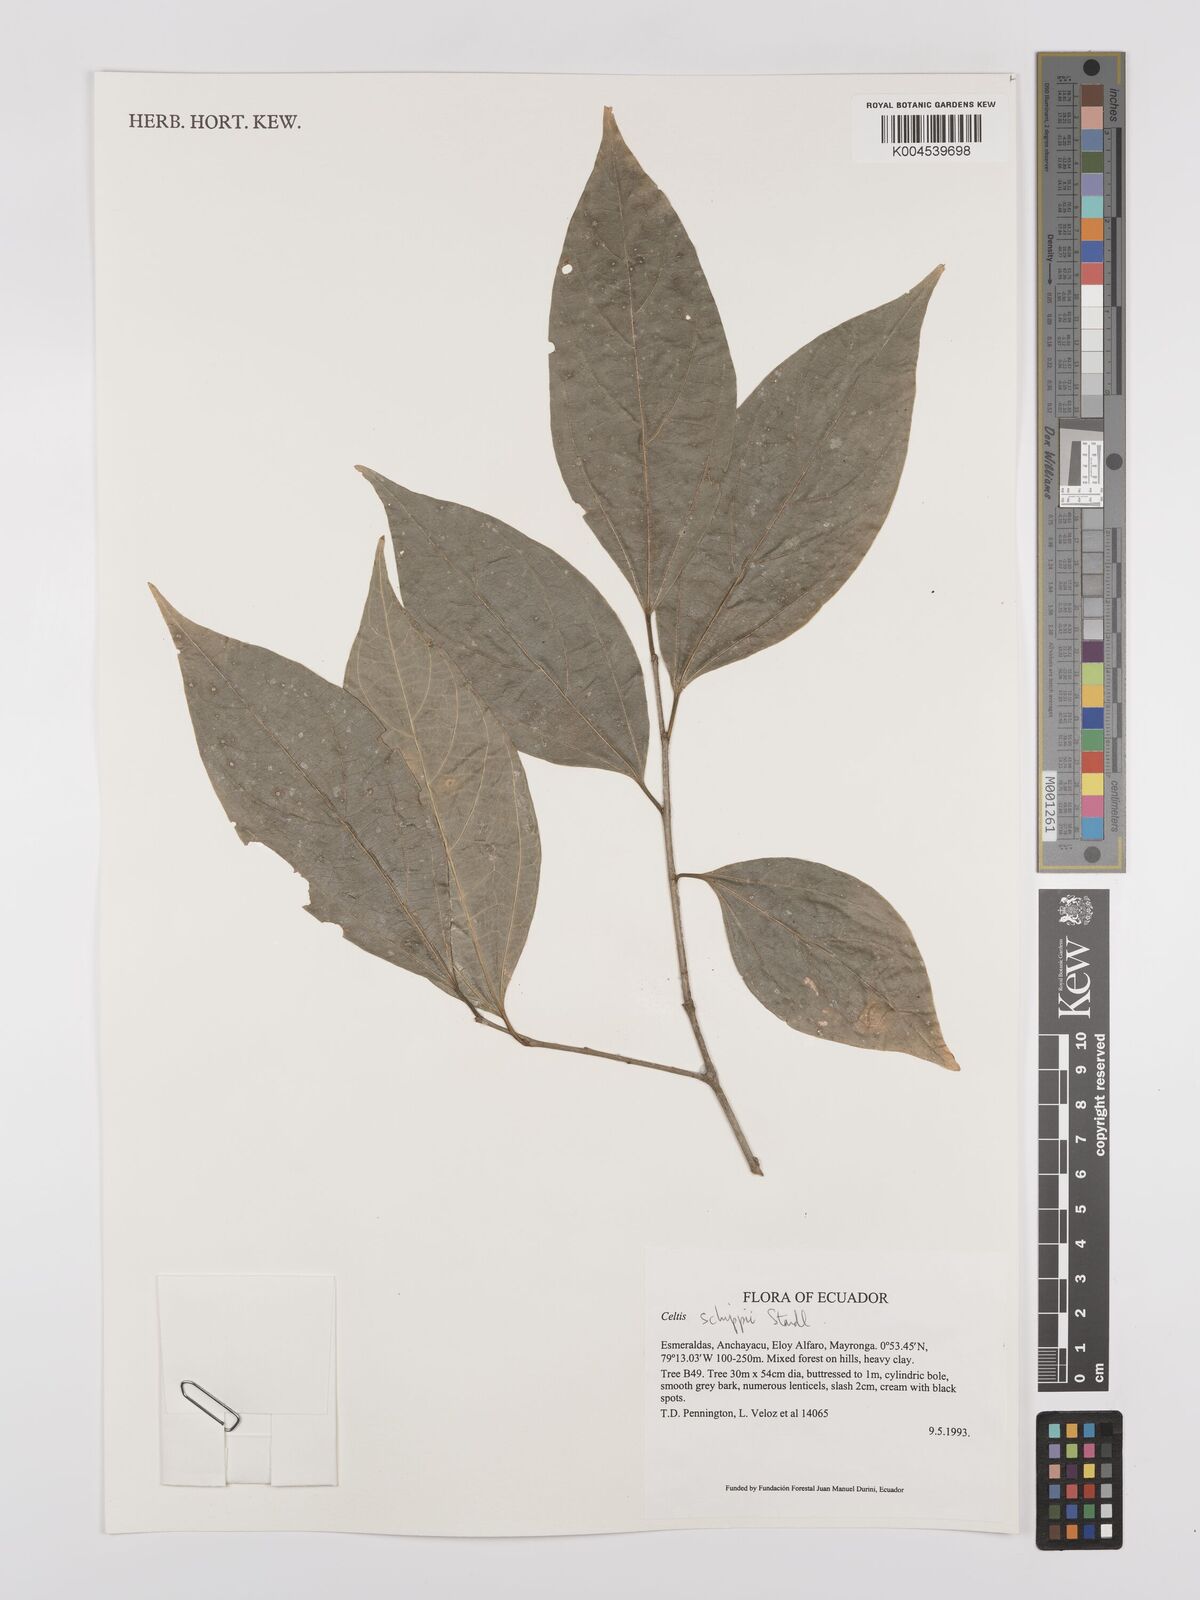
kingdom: Plantae
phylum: Tracheophyta
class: Magnoliopsida
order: Rosales
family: Cannabaceae
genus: Celtis
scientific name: Celtis schippii
